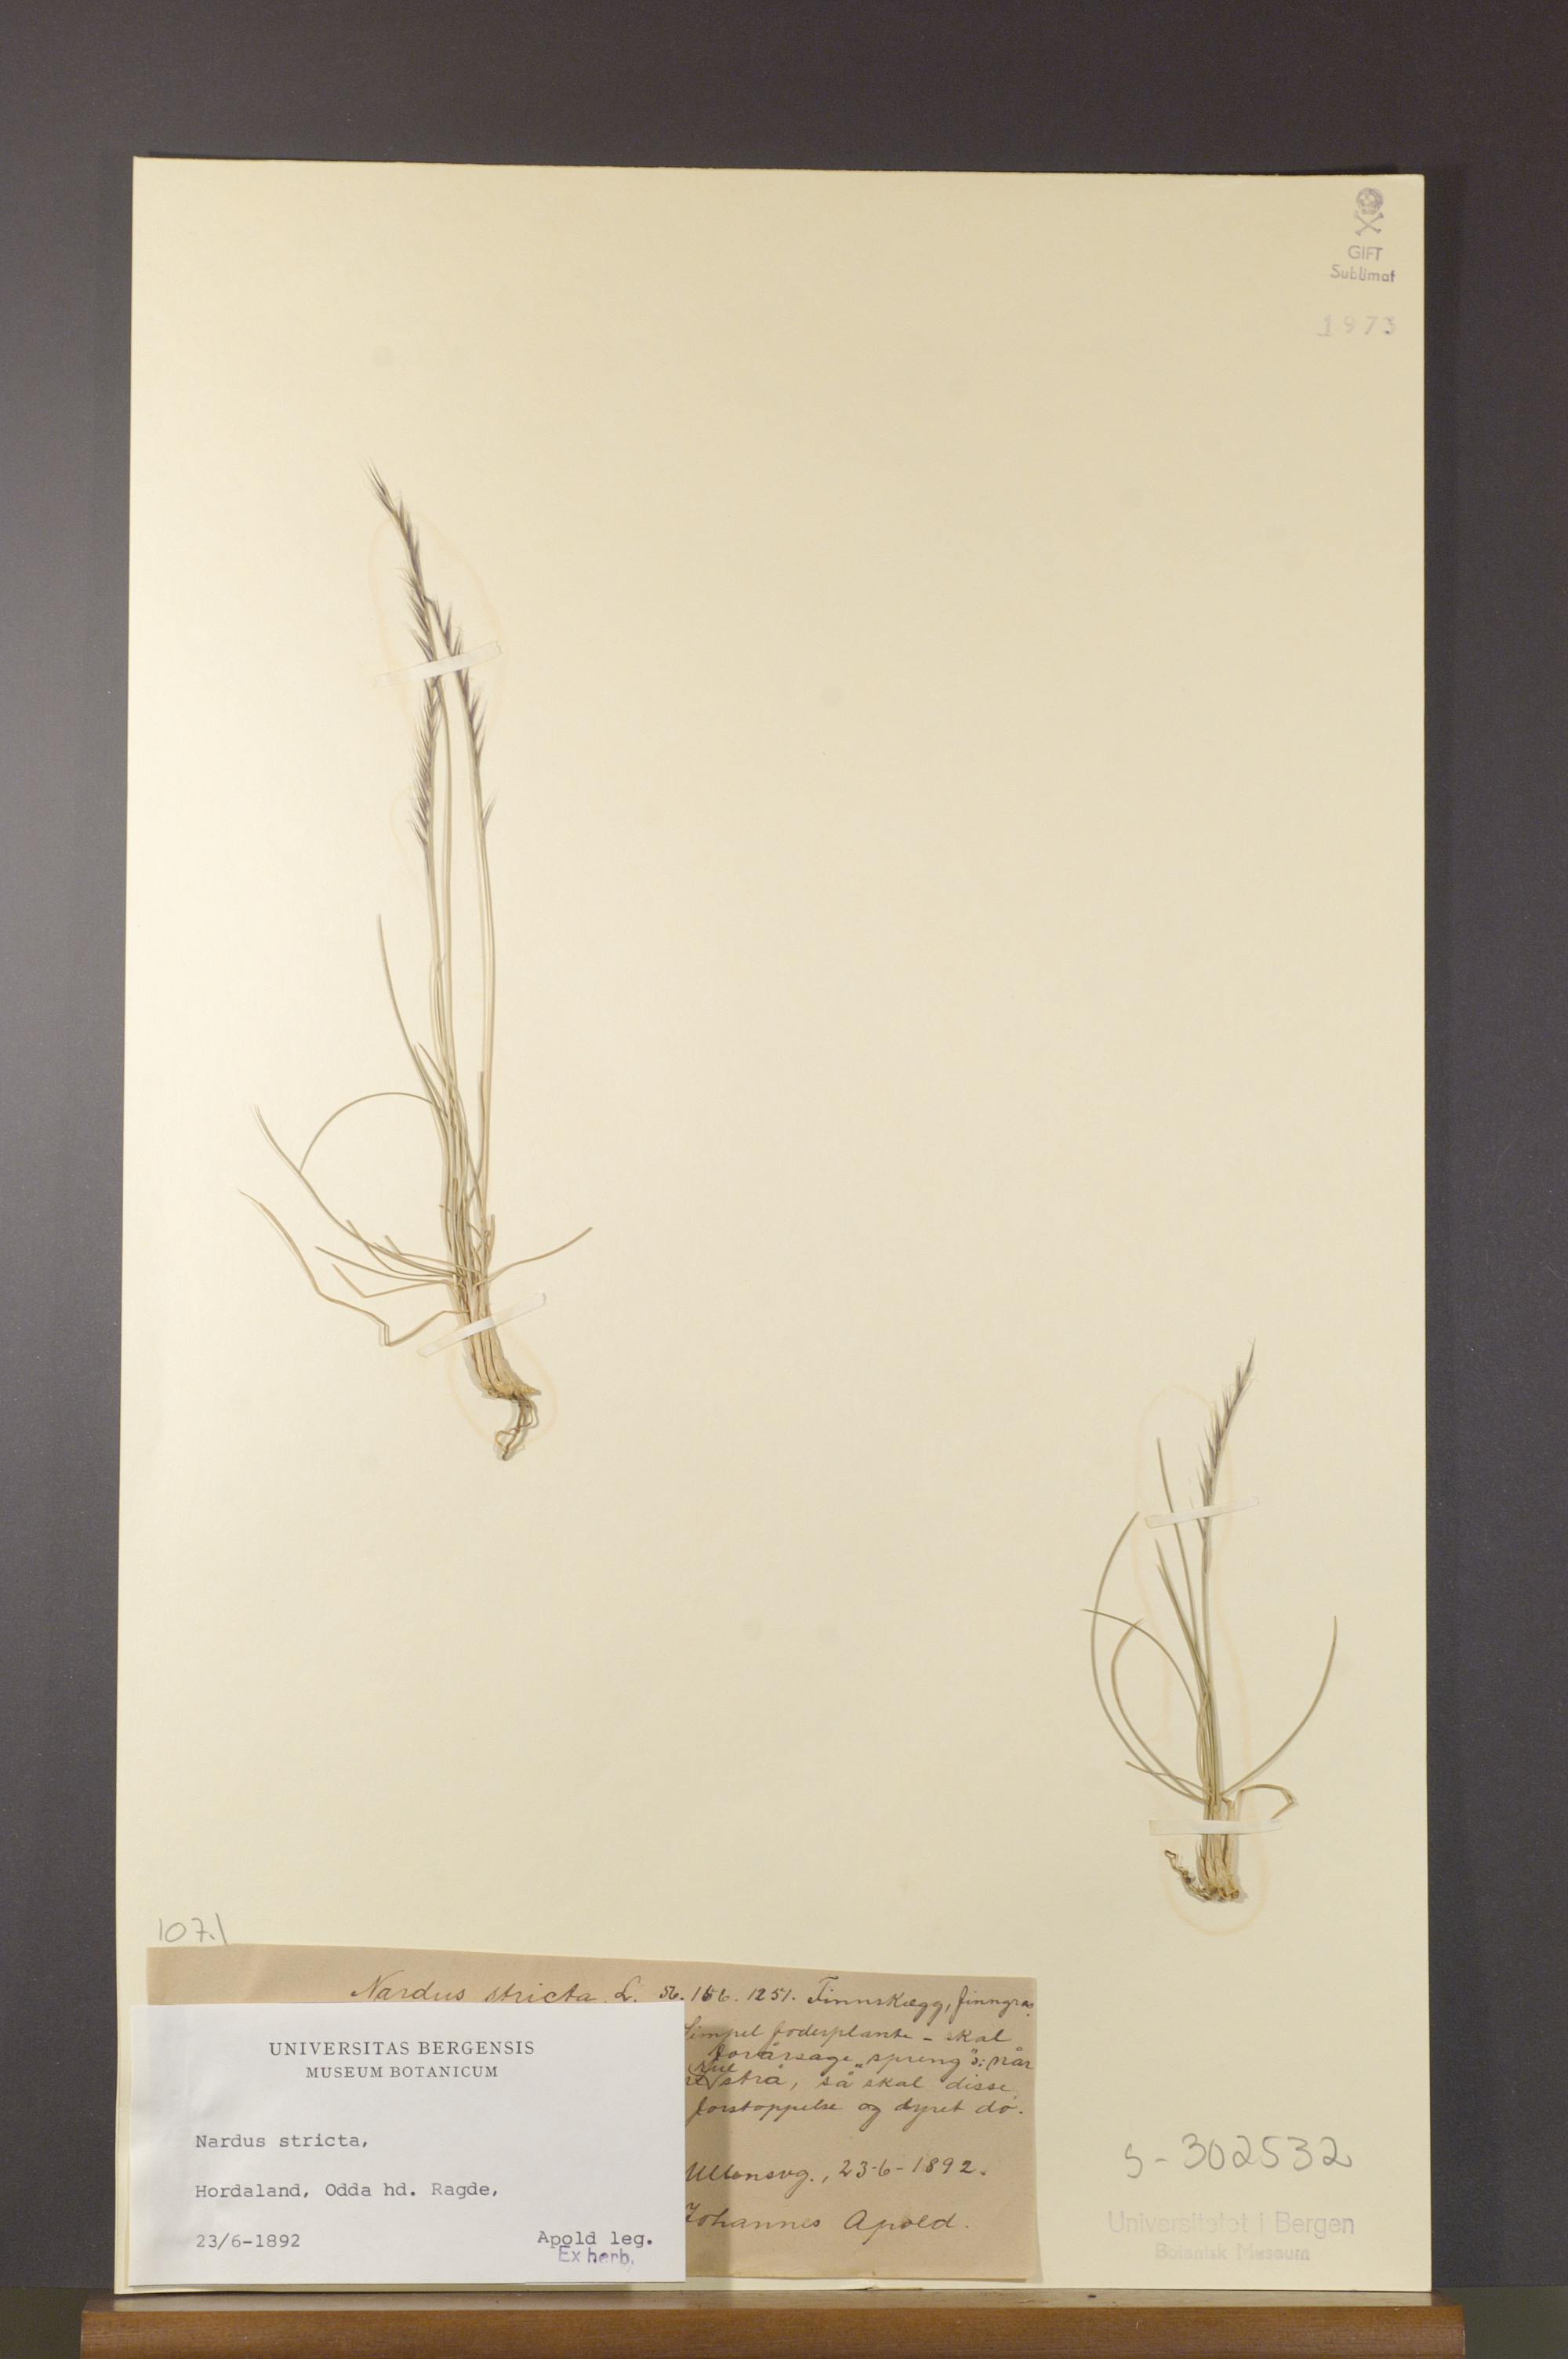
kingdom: Plantae
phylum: Tracheophyta
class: Liliopsida
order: Poales
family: Poaceae
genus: Nardus
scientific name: Nardus stricta
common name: Mat-grass
